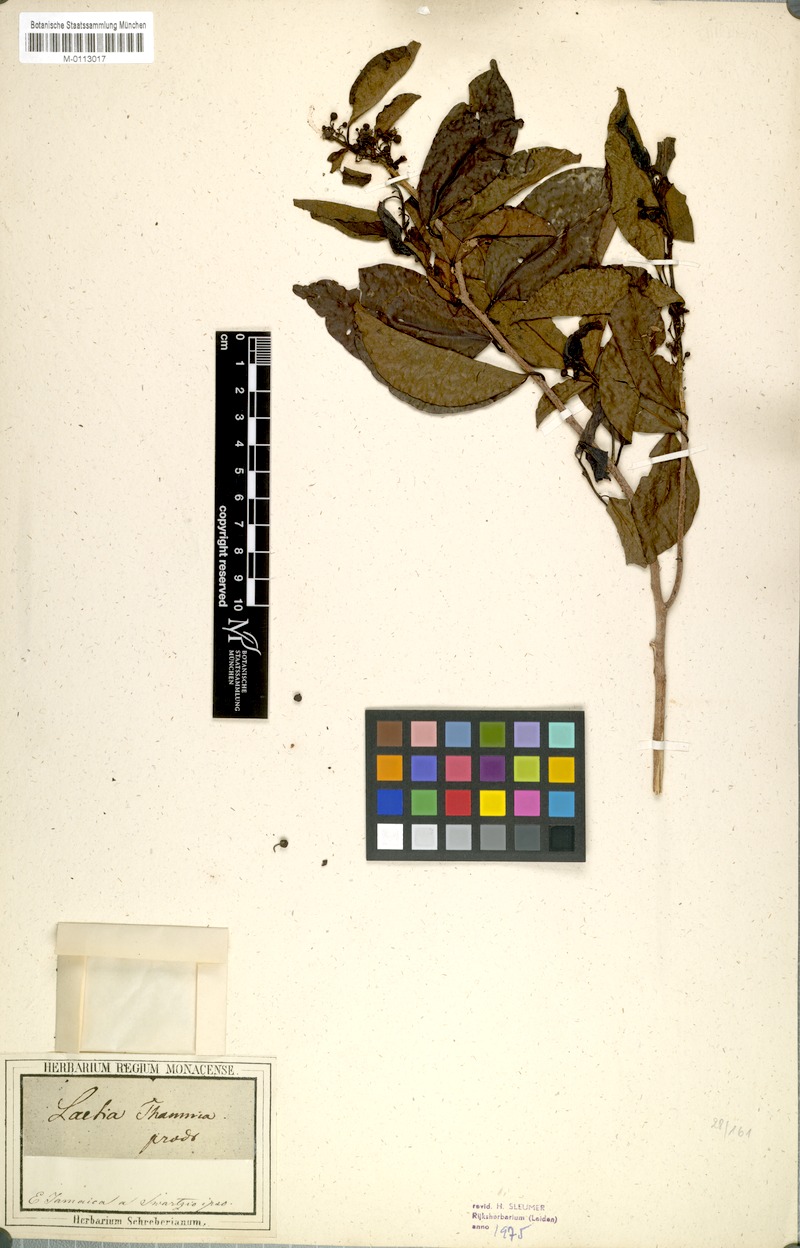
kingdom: Plantae
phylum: Tracheophyta
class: Magnoliopsida
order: Malpighiales
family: Salicaceae
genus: Casearia
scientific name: Casearia thamnia
